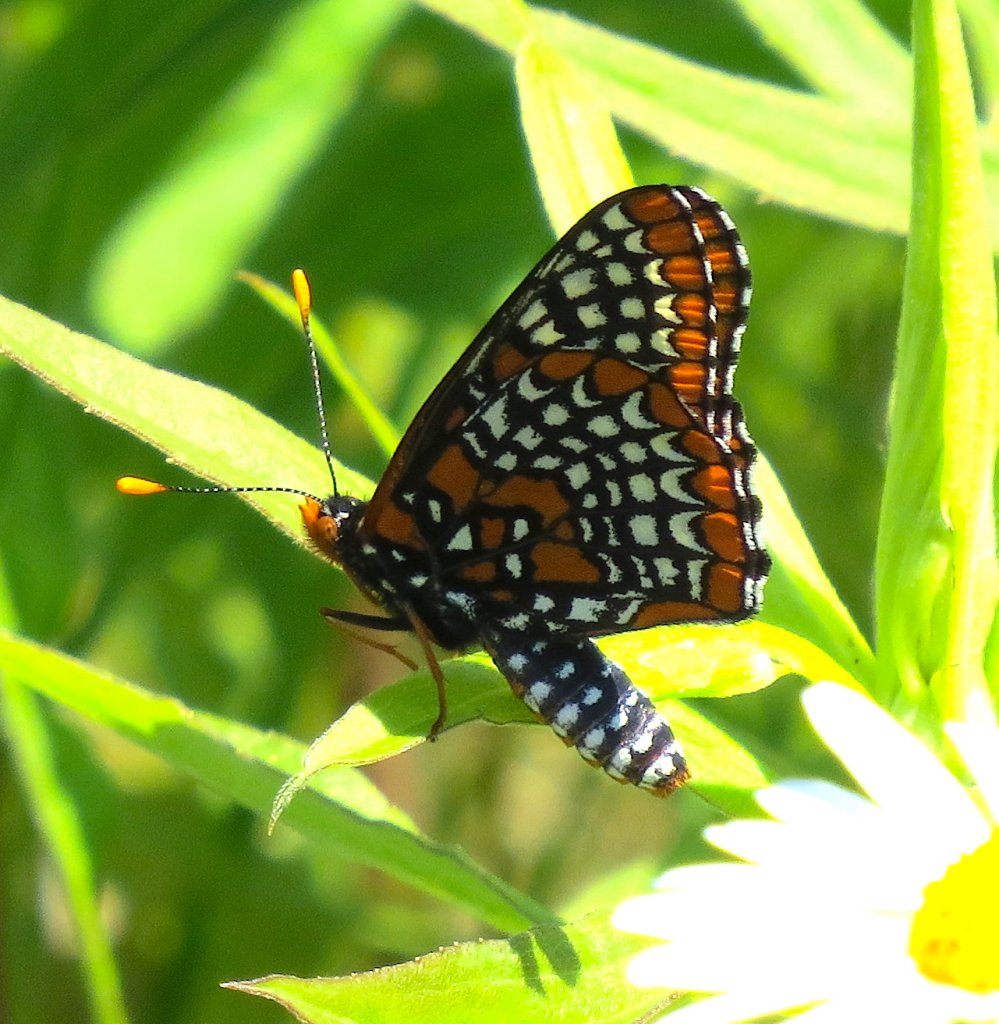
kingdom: Animalia
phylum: Arthropoda
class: Insecta
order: Lepidoptera
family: Nymphalidae
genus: Euphydryas
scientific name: Euphydryas phaeton
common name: Baltimore Checkerspot
